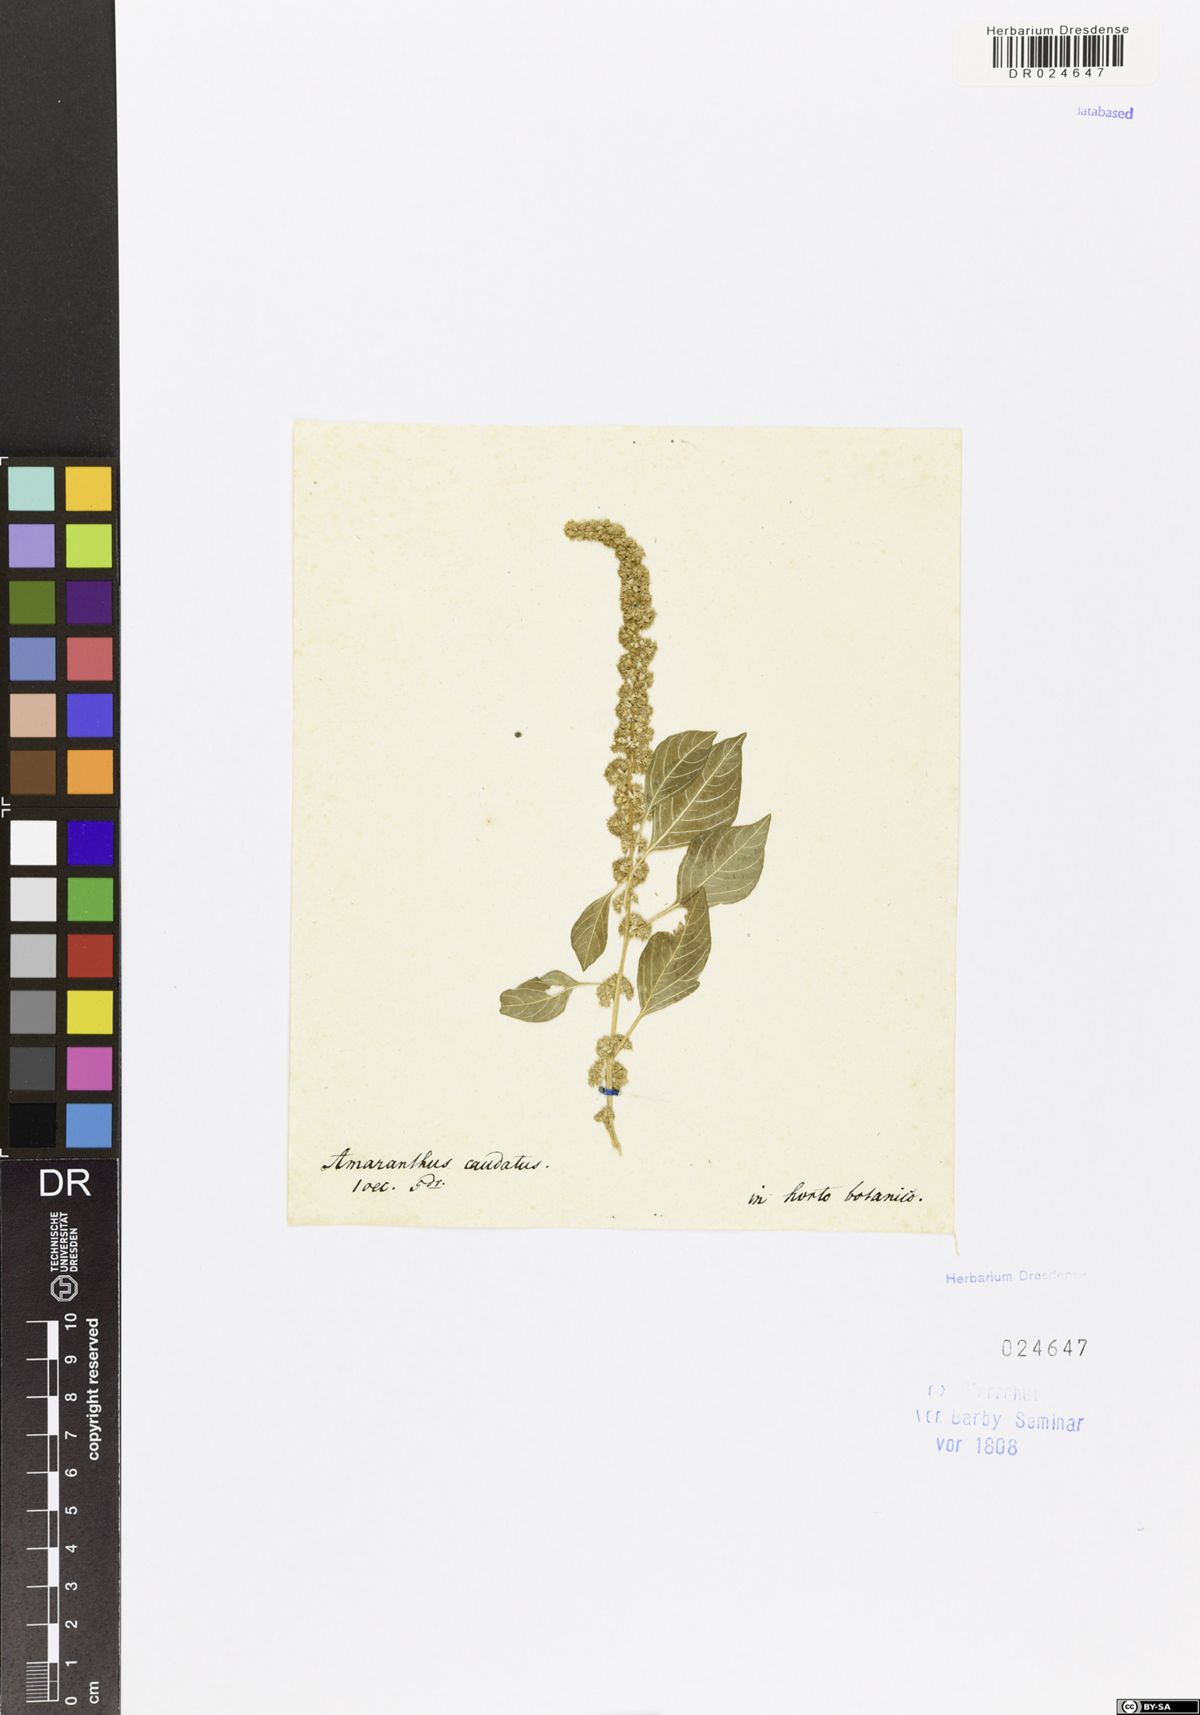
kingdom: Plantae
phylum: Tracheophyta
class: Magnoliopsida
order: Caryophyllales
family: Amaranthaceae
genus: Amaranthus
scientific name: Amaranthus caudatus
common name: Love-lies-bleeding
